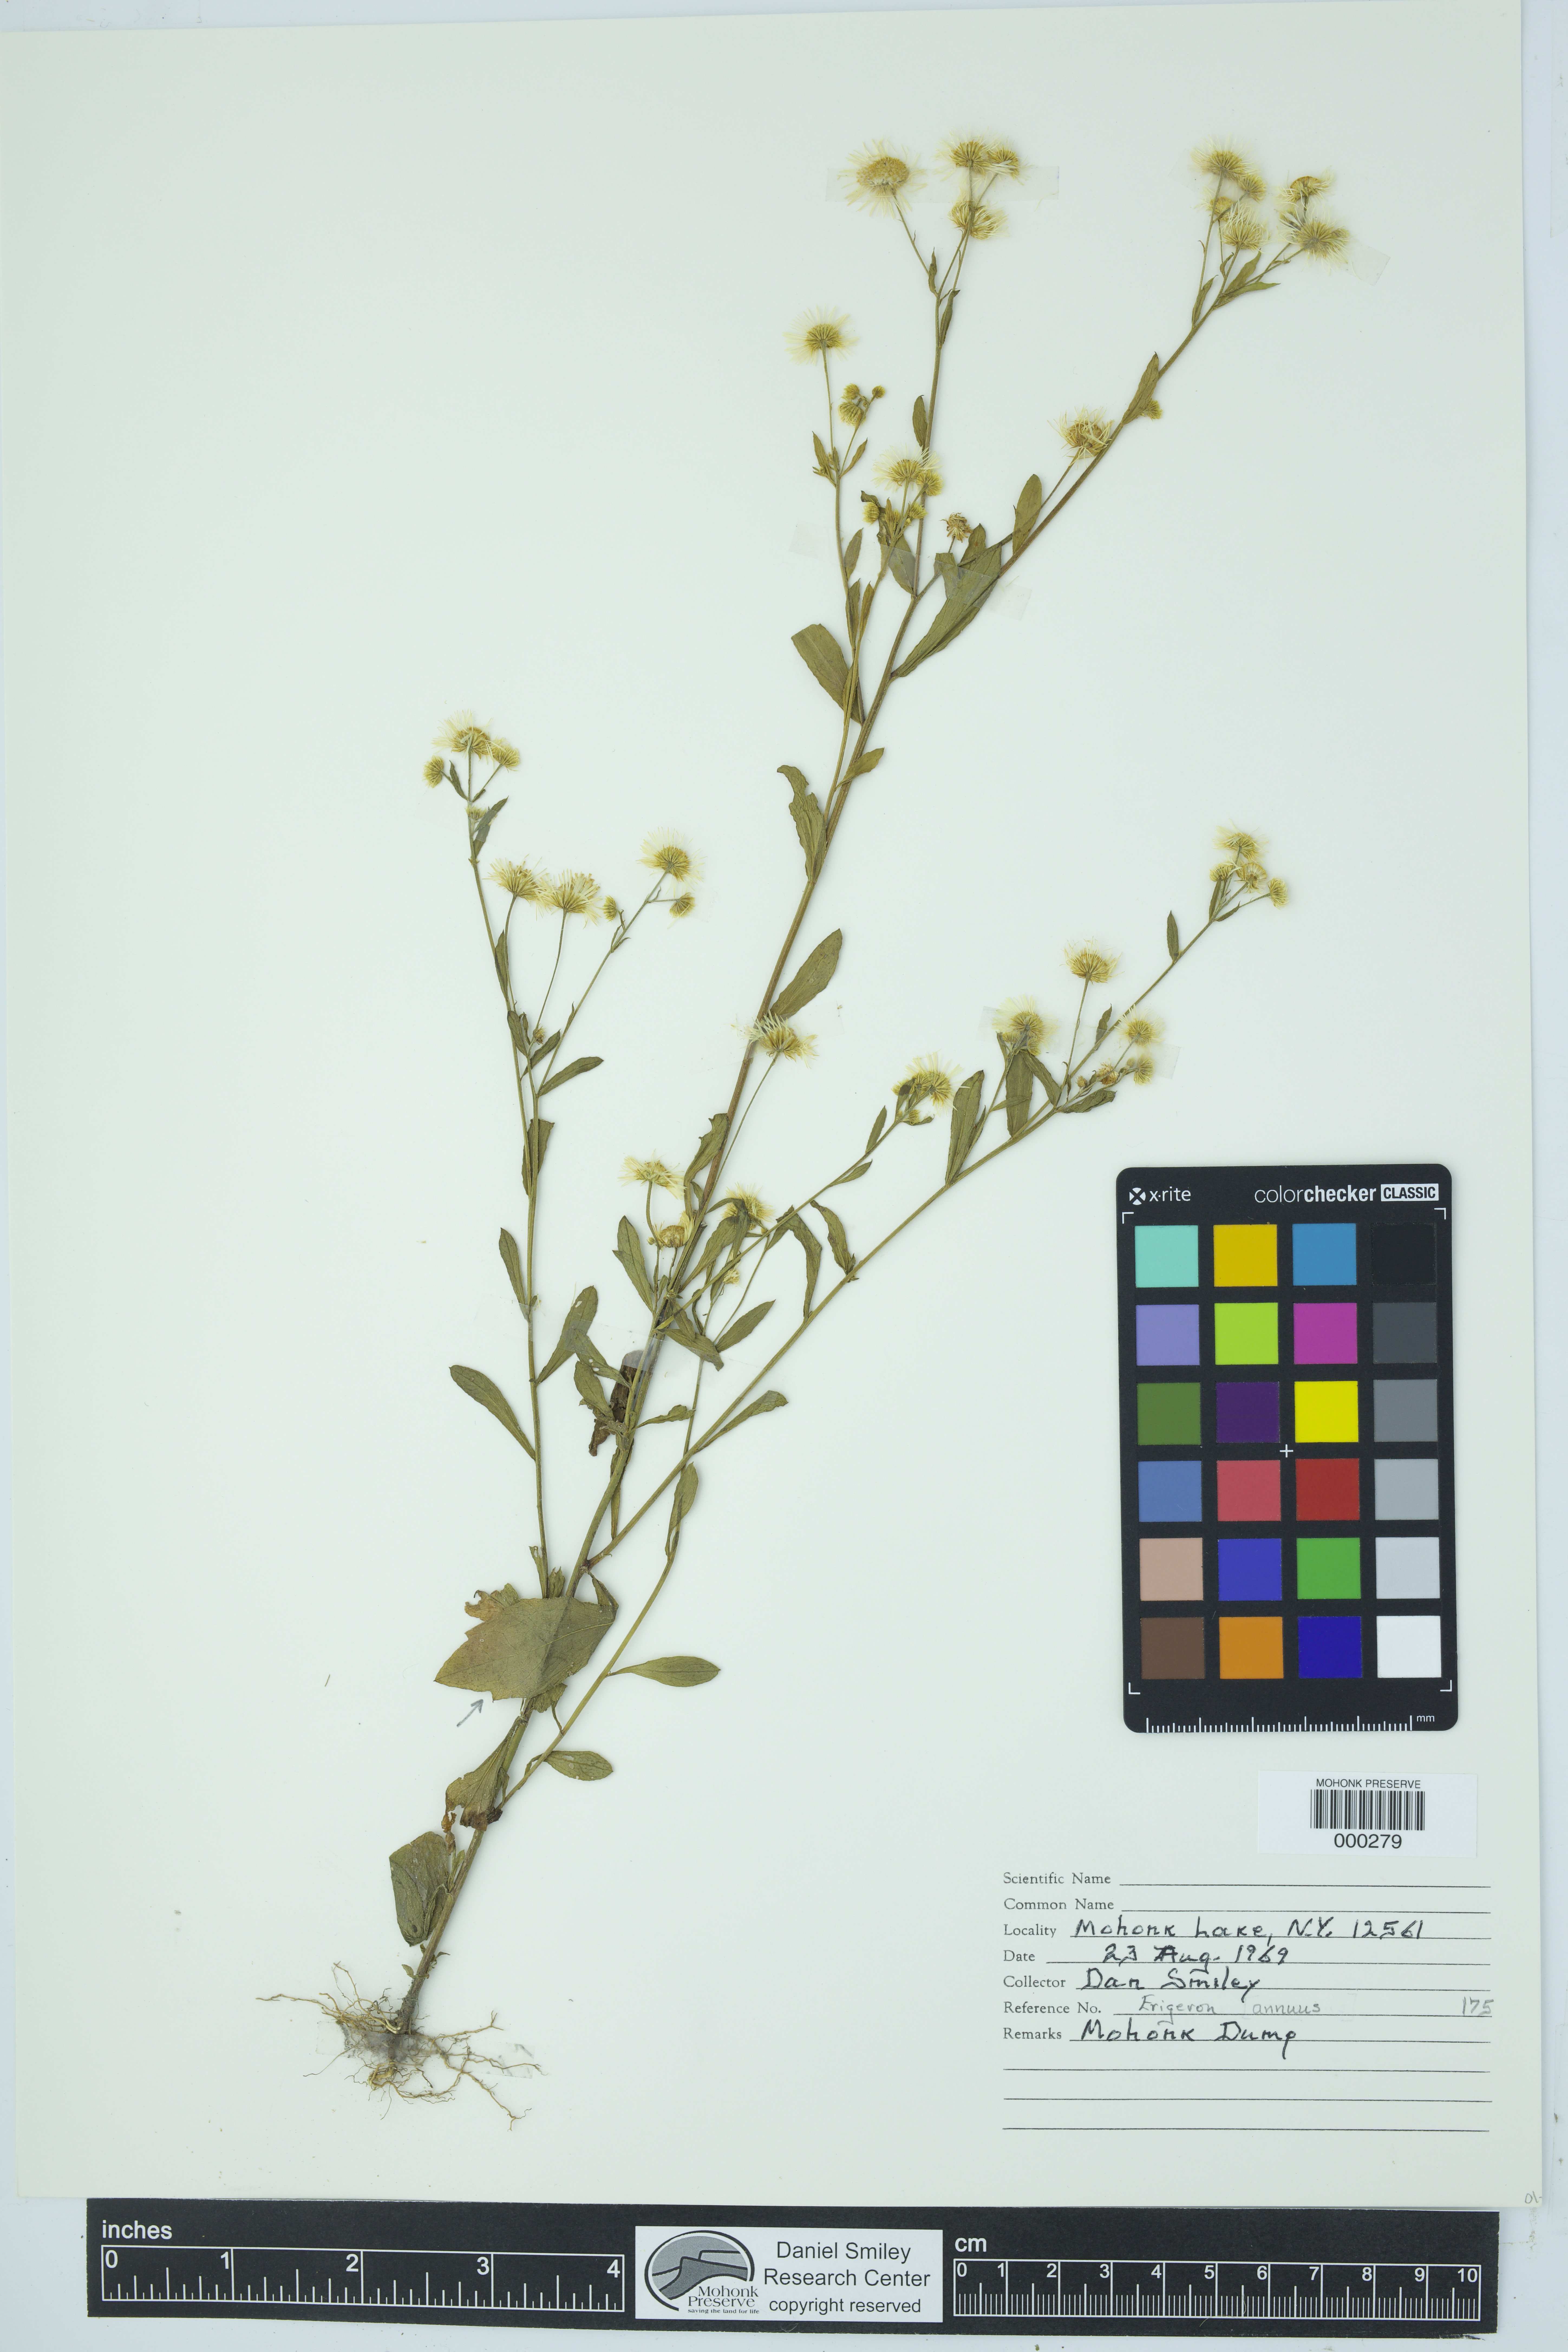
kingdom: Plantae
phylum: Tracheophyta
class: Magnoliopsida
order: Asterales
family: Asteraceae
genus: Erigeron
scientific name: Erigeron annuus
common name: Tall fleabane
